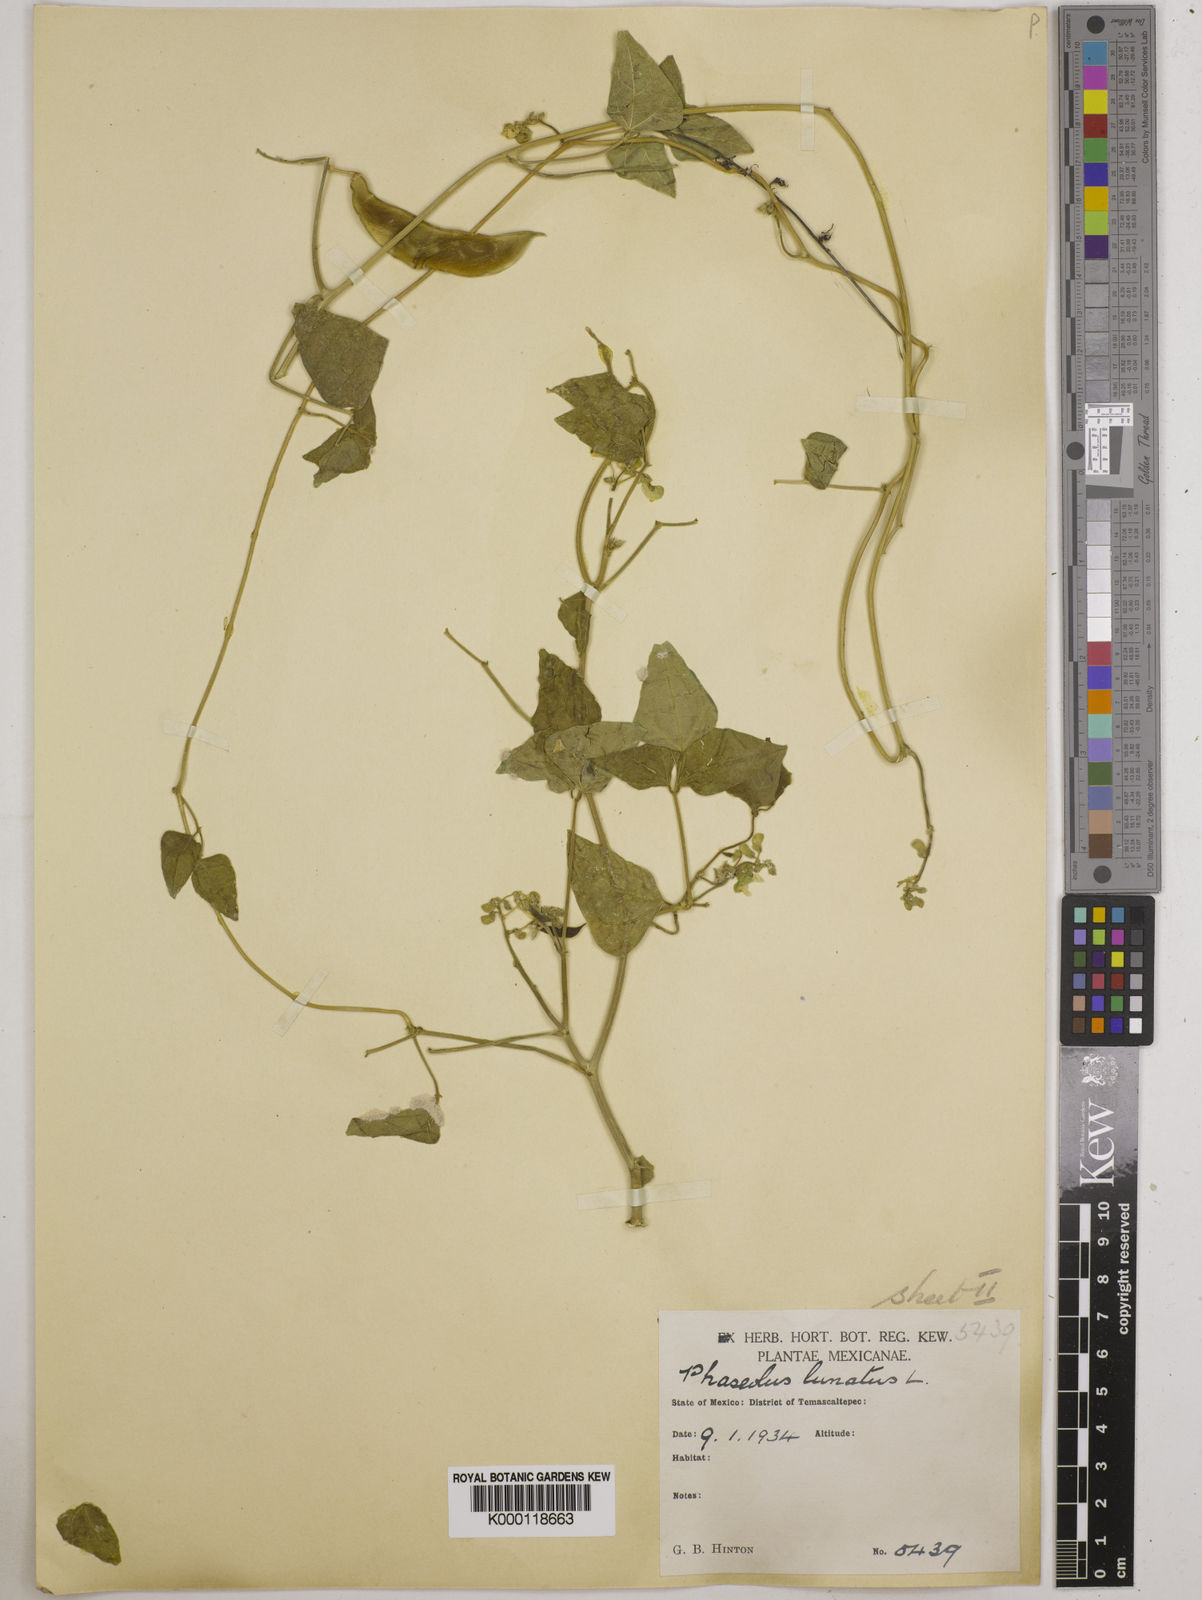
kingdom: Plantae
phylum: Tracheophyta
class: Magnoliopsida
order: Fabales
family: Fabaceae
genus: Phaseolus
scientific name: Phaseolus lunatus
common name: Sieva bean
